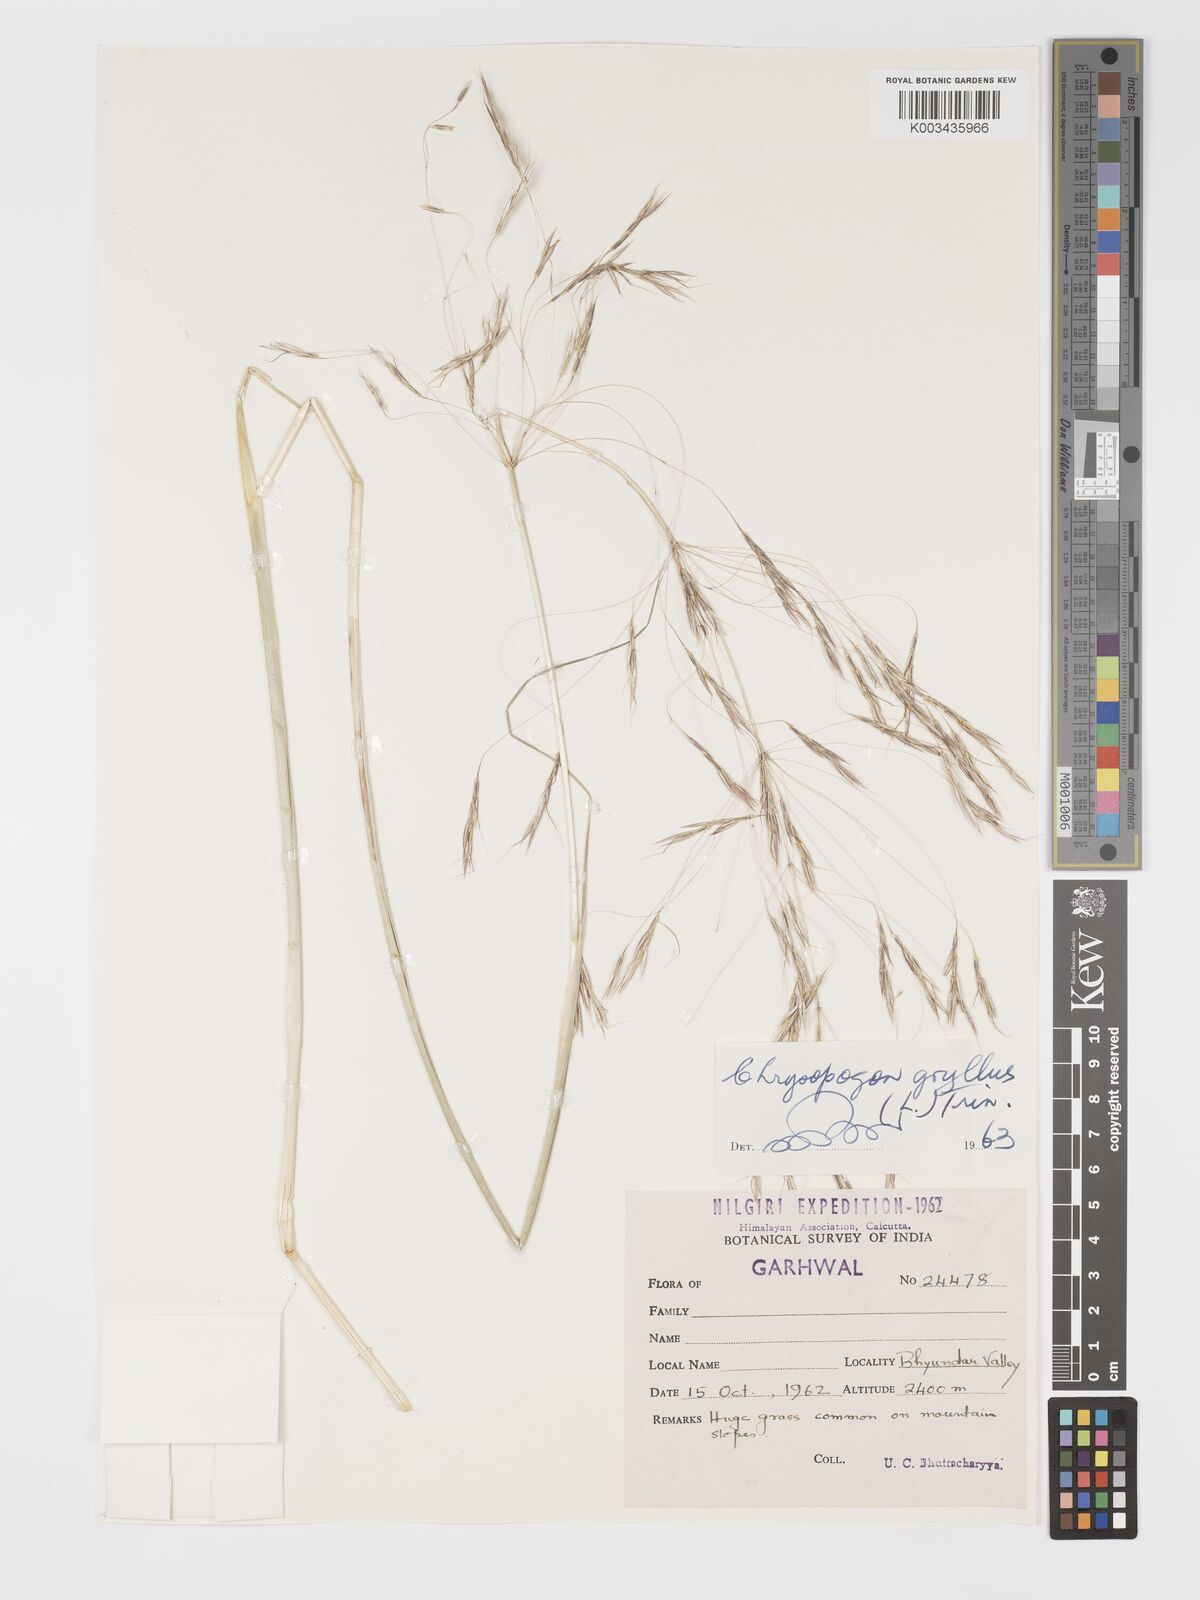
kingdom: Plantae
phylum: Tracheophyta
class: Liliopsida
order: Poales
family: Poaceae
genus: Chrysopogon
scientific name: Chrysopogon gryllus
